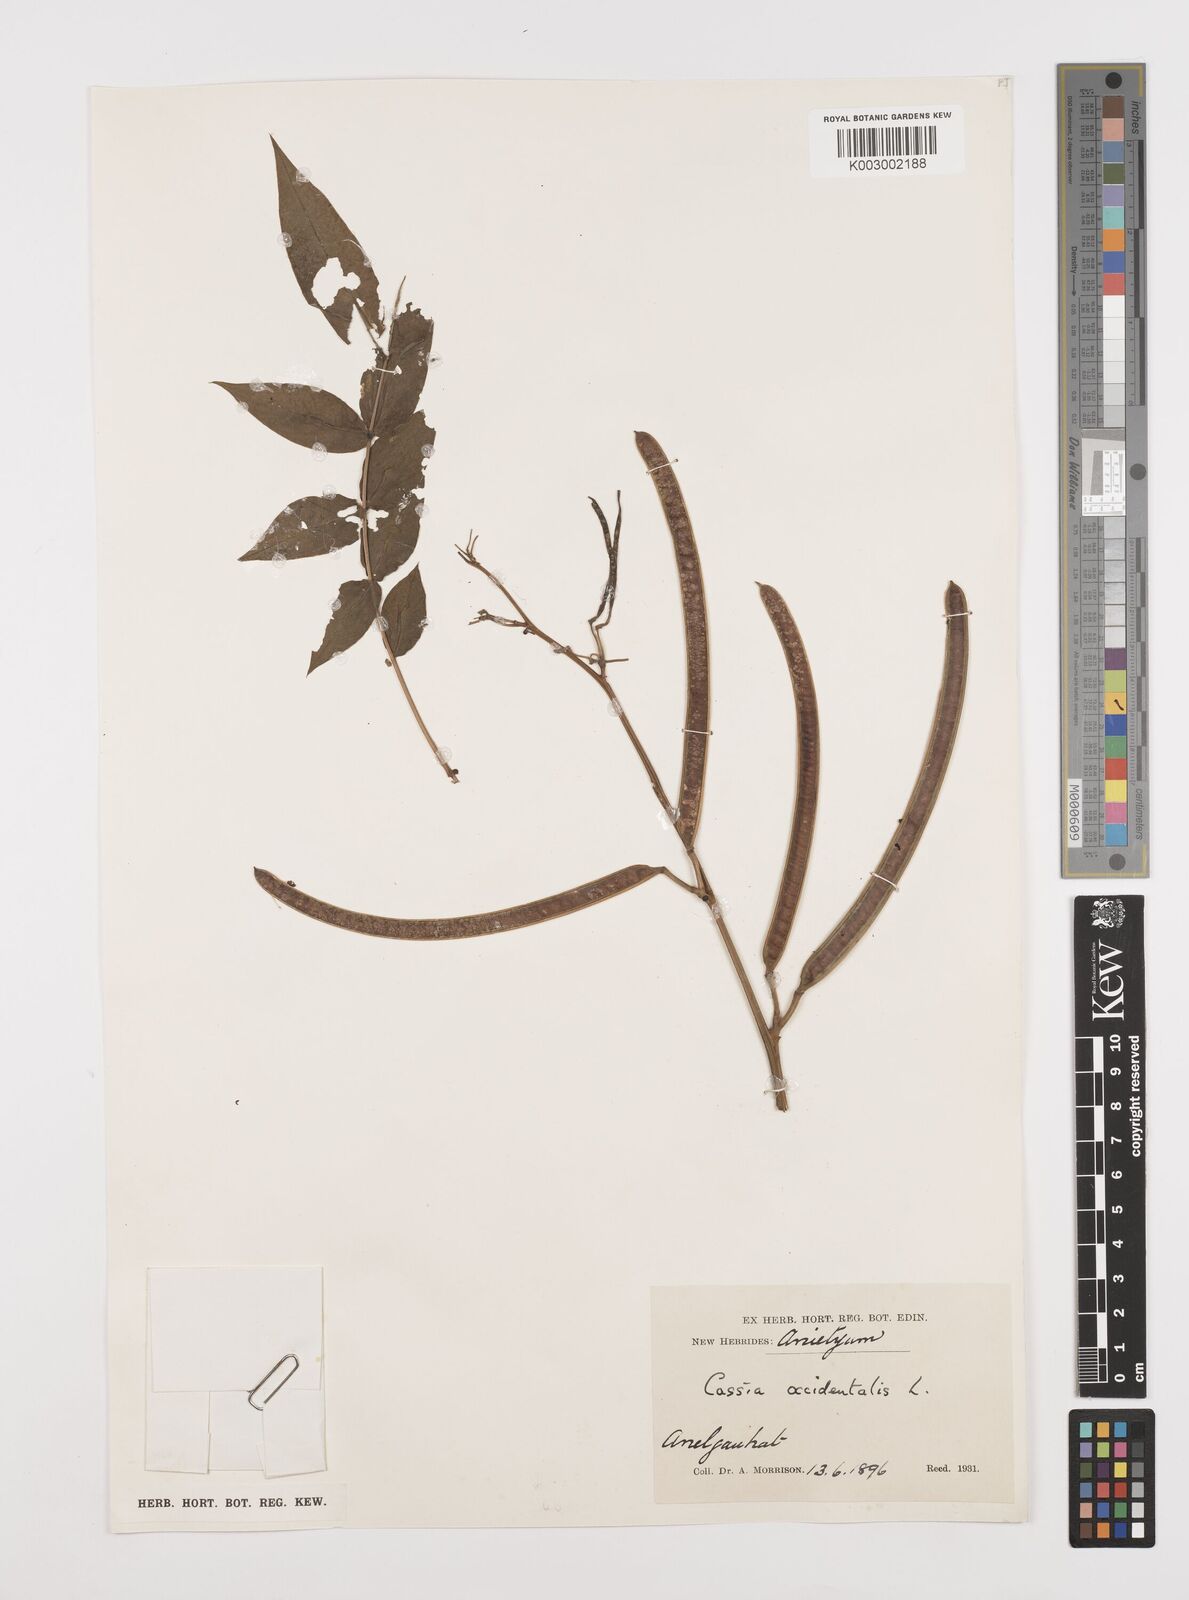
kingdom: Plantae
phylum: Tracheophyta
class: Magnoliopsida
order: Fabales
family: Fabaceae
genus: Senna
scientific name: Senna occidentalis
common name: Septicweed
